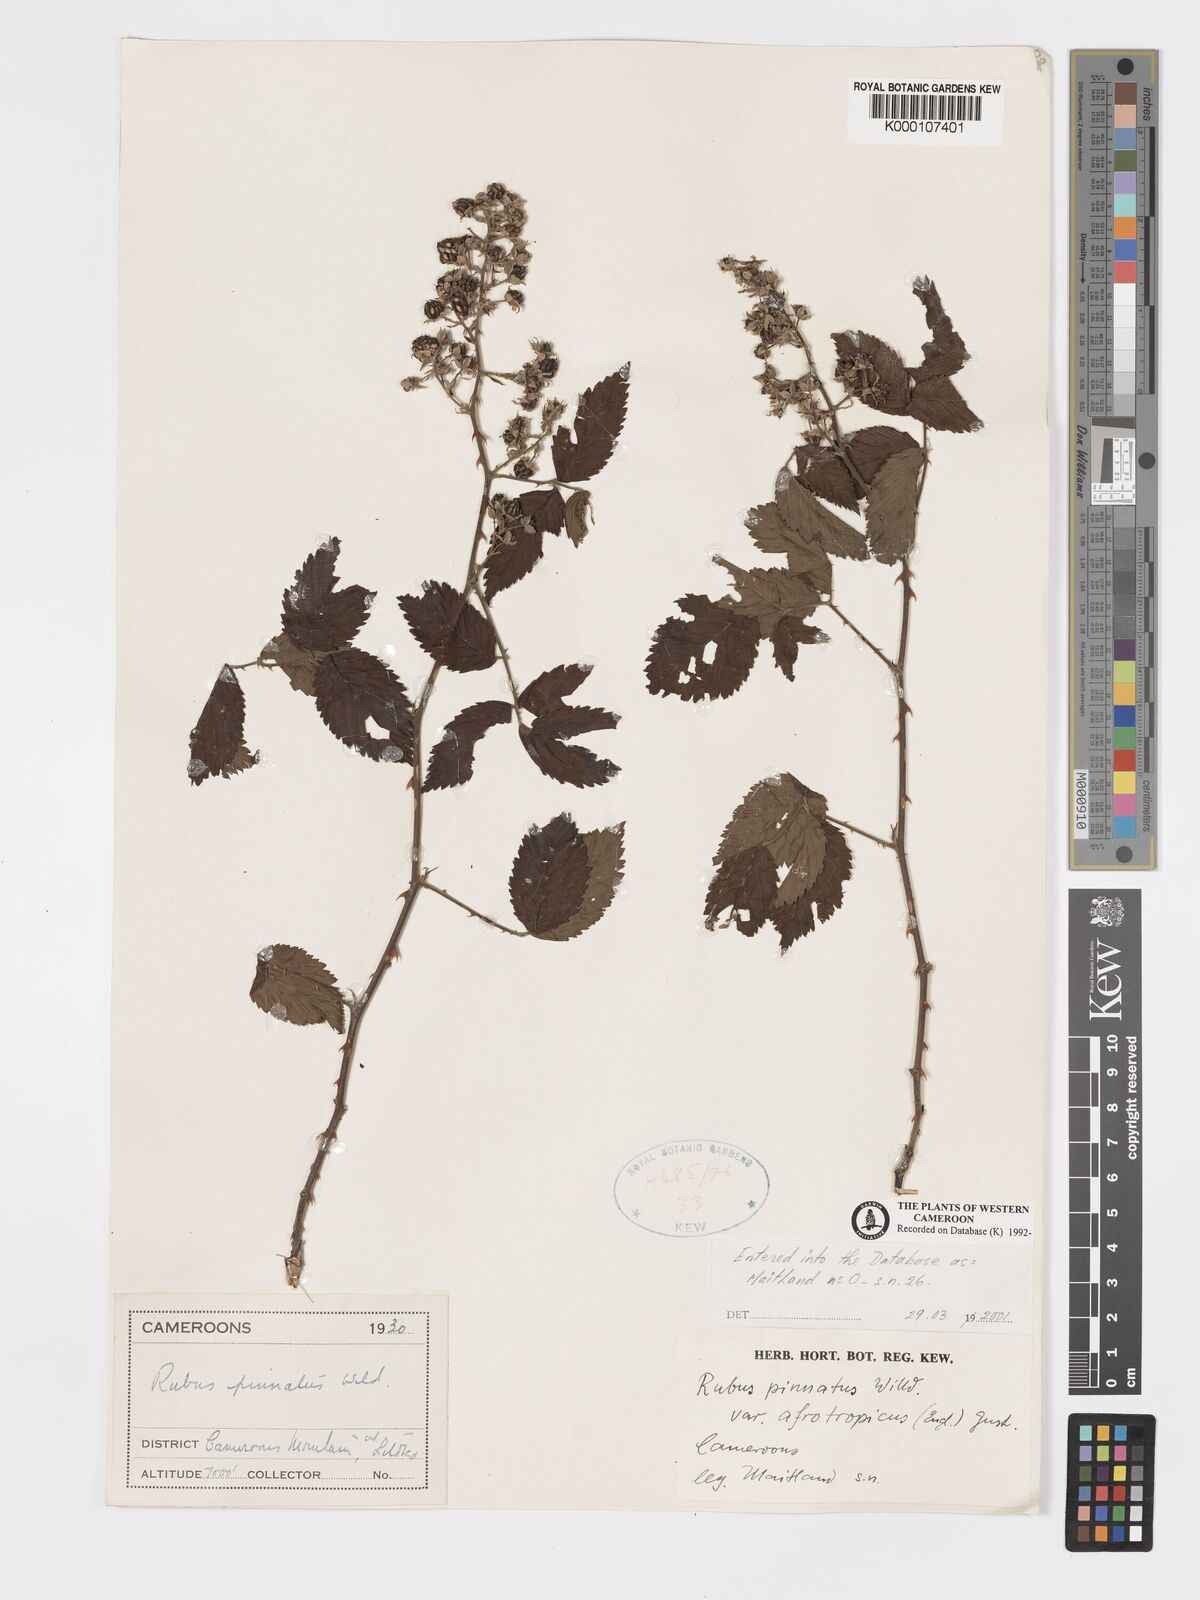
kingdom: Plantae
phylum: Tracheophyta
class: Magnoliopsida
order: Rosales
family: Rosaceae
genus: Rubus
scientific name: Rubus pinnatus
